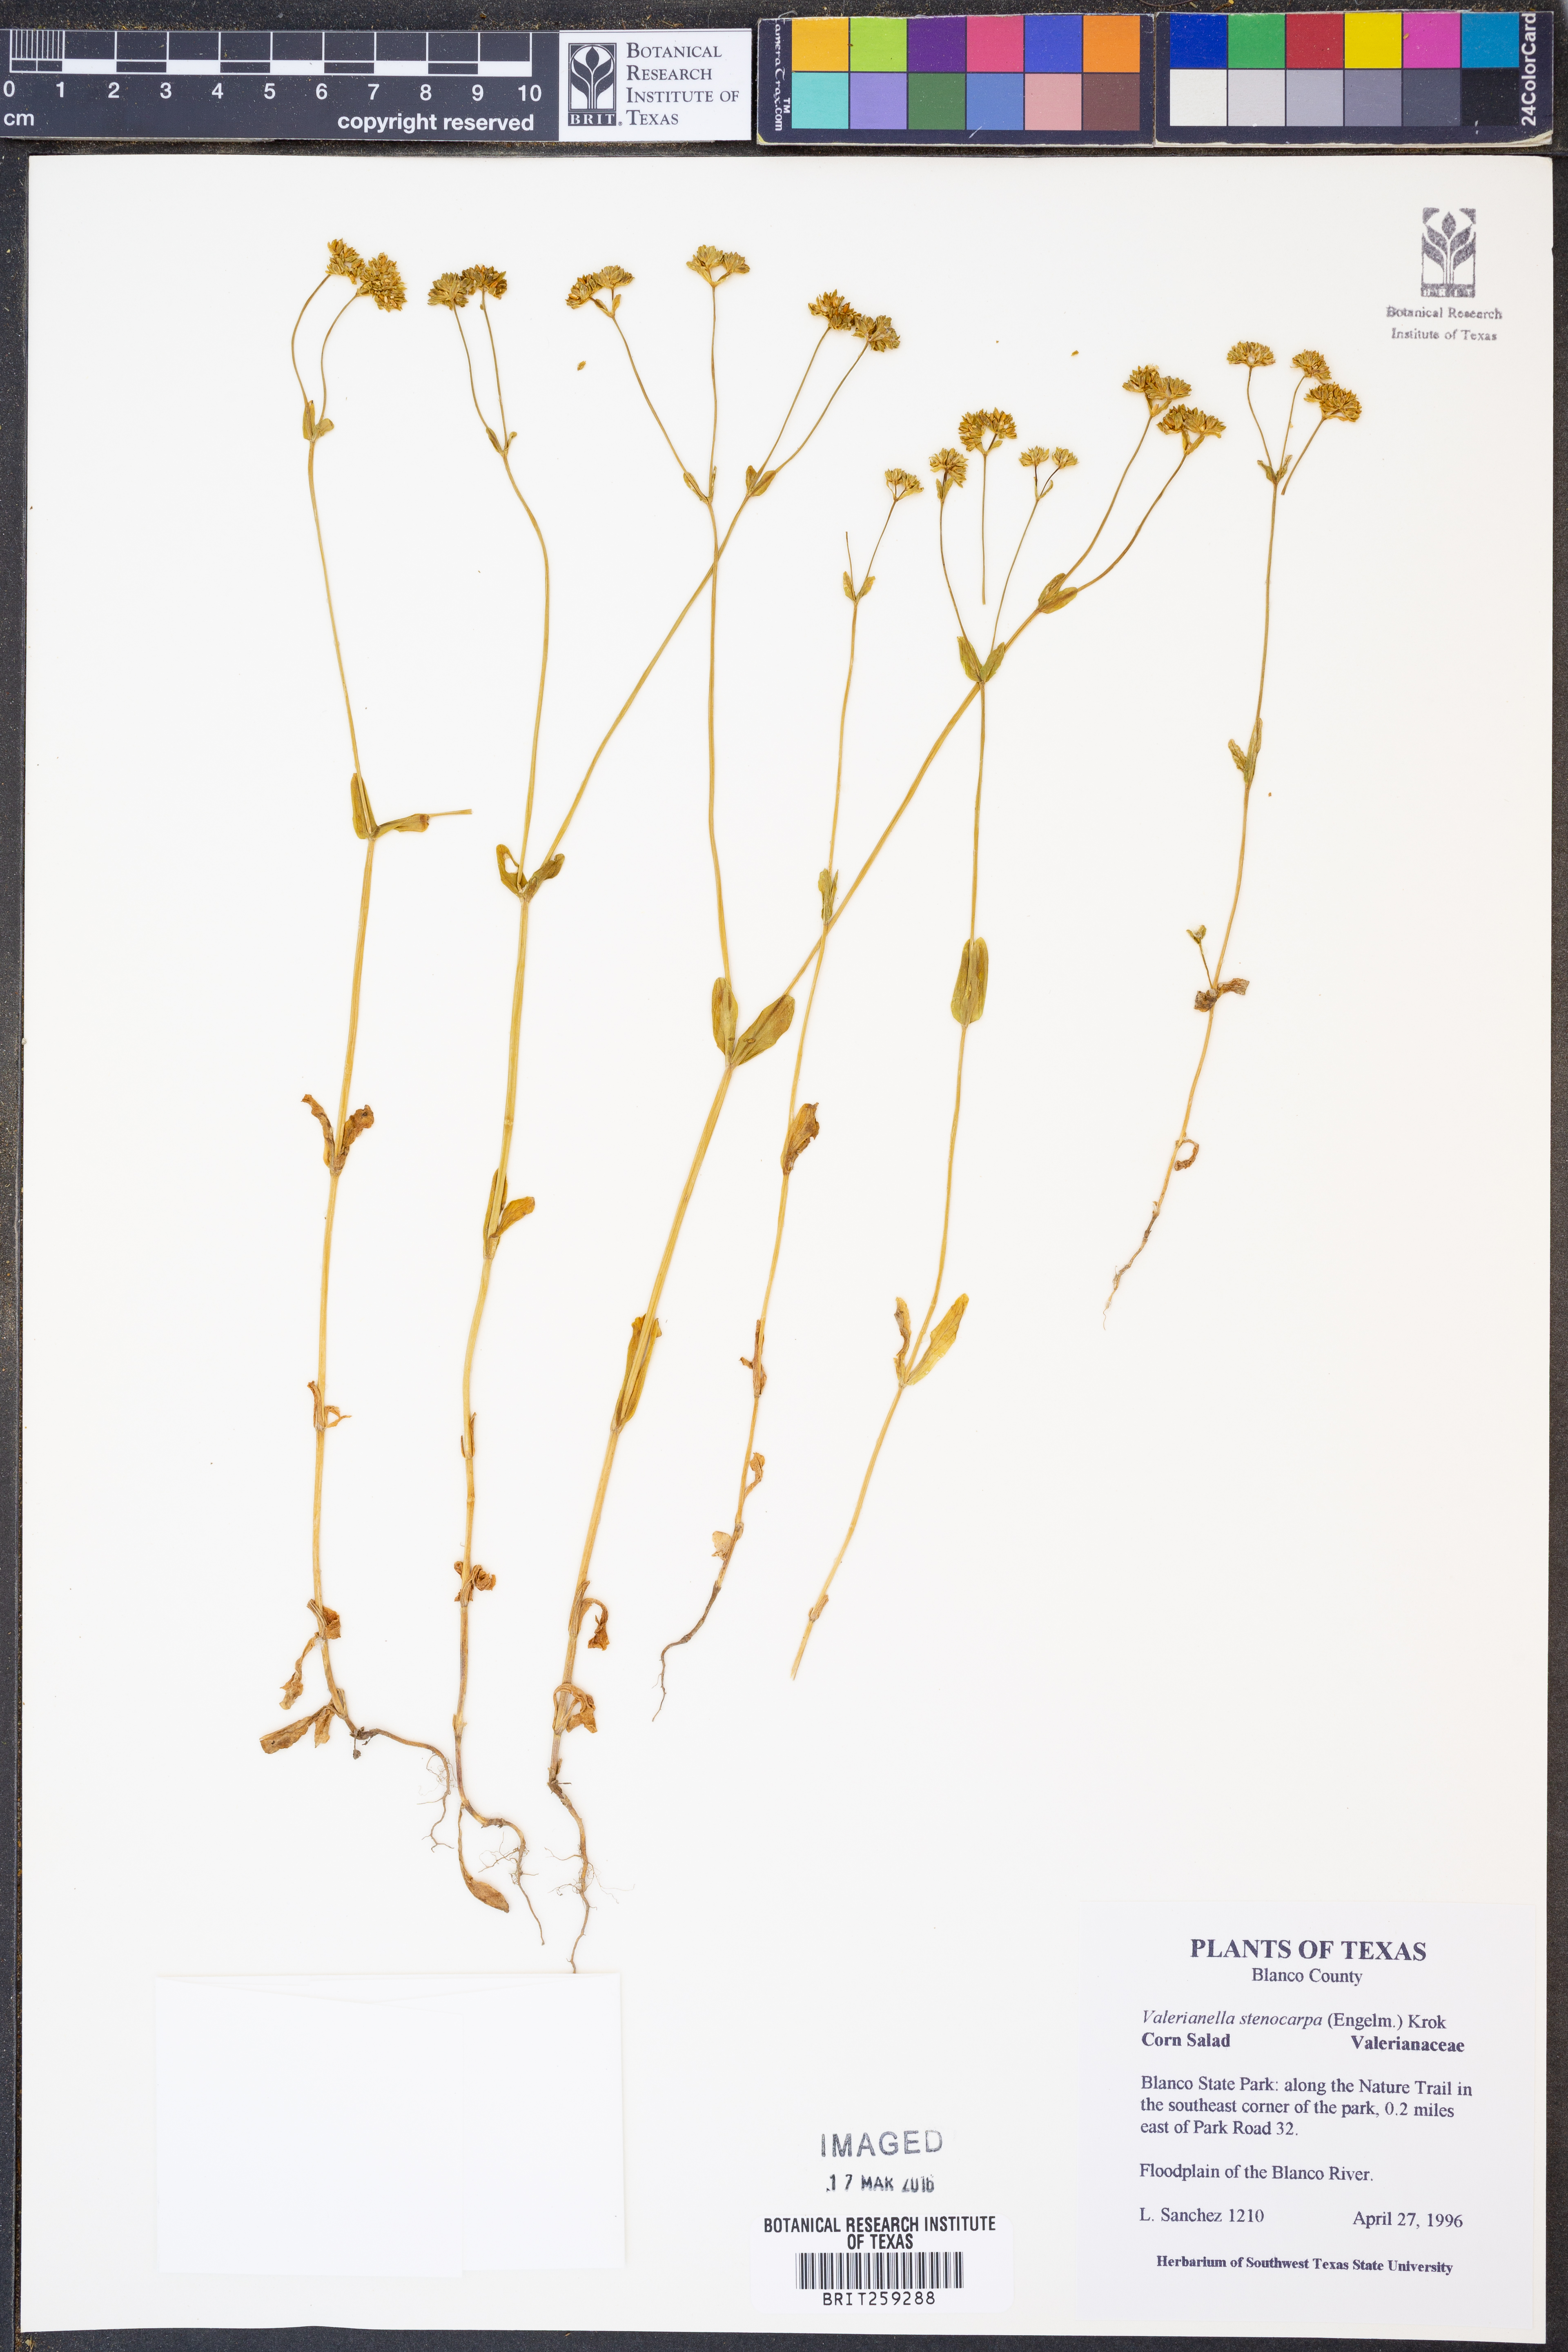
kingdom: Plantae
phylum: Tracheophyta
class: Magnoliopsida
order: Dipsacales
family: Caprifoliaceae
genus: Valerianella
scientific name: Valerianella stenocarpa
